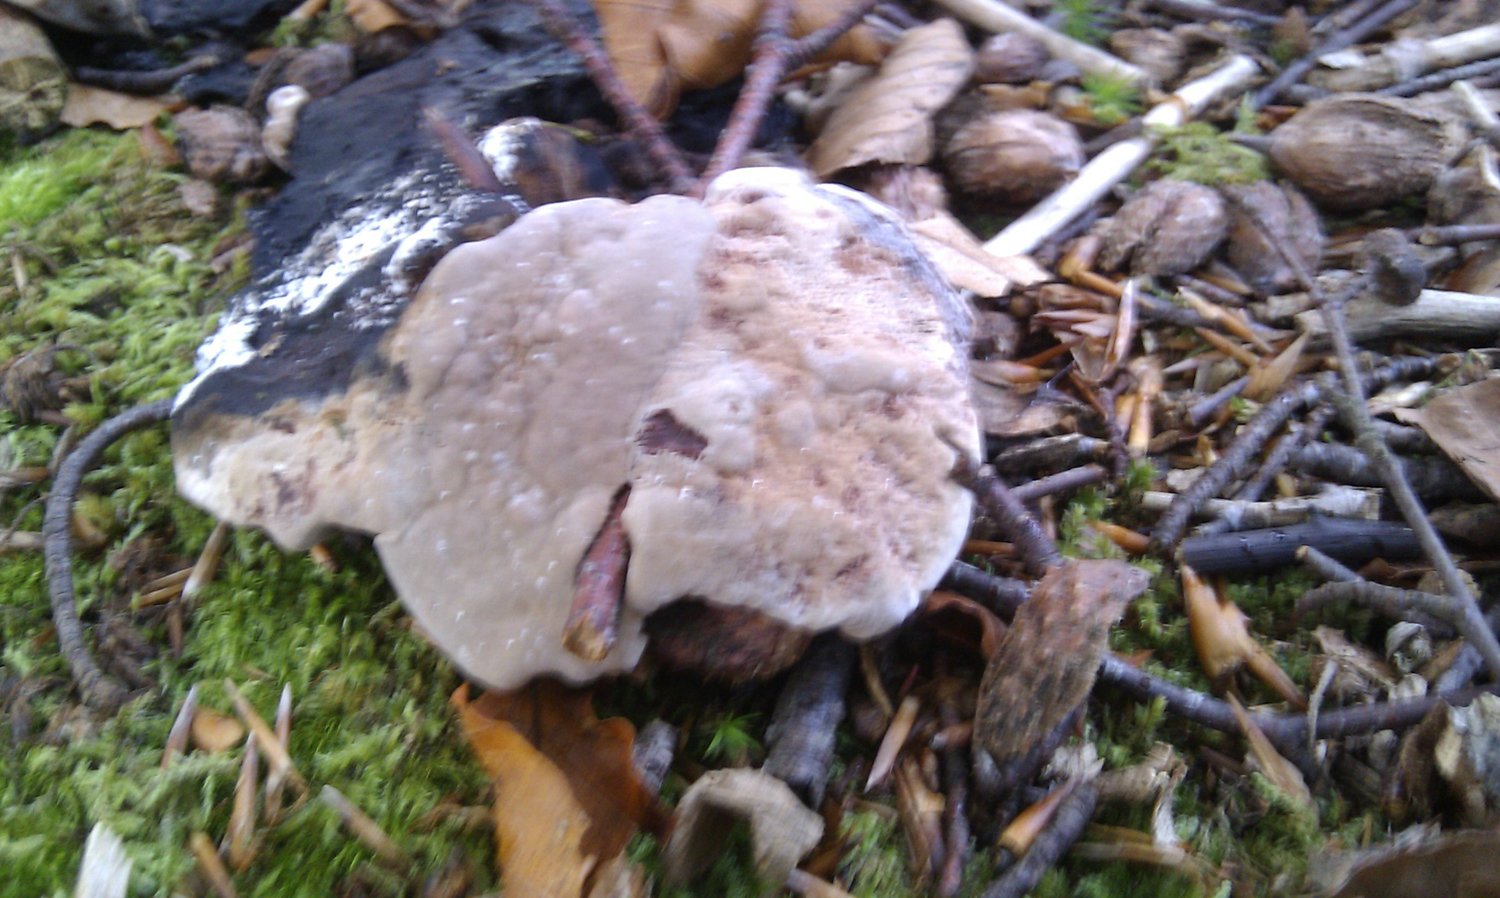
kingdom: Fungi
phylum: Basidiomycota
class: Agaricomycetes
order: Thelephorales
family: Bankeraceae
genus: Hydnellum
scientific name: Hydnellum spongiosipes
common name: filtet korkpigsvamp
